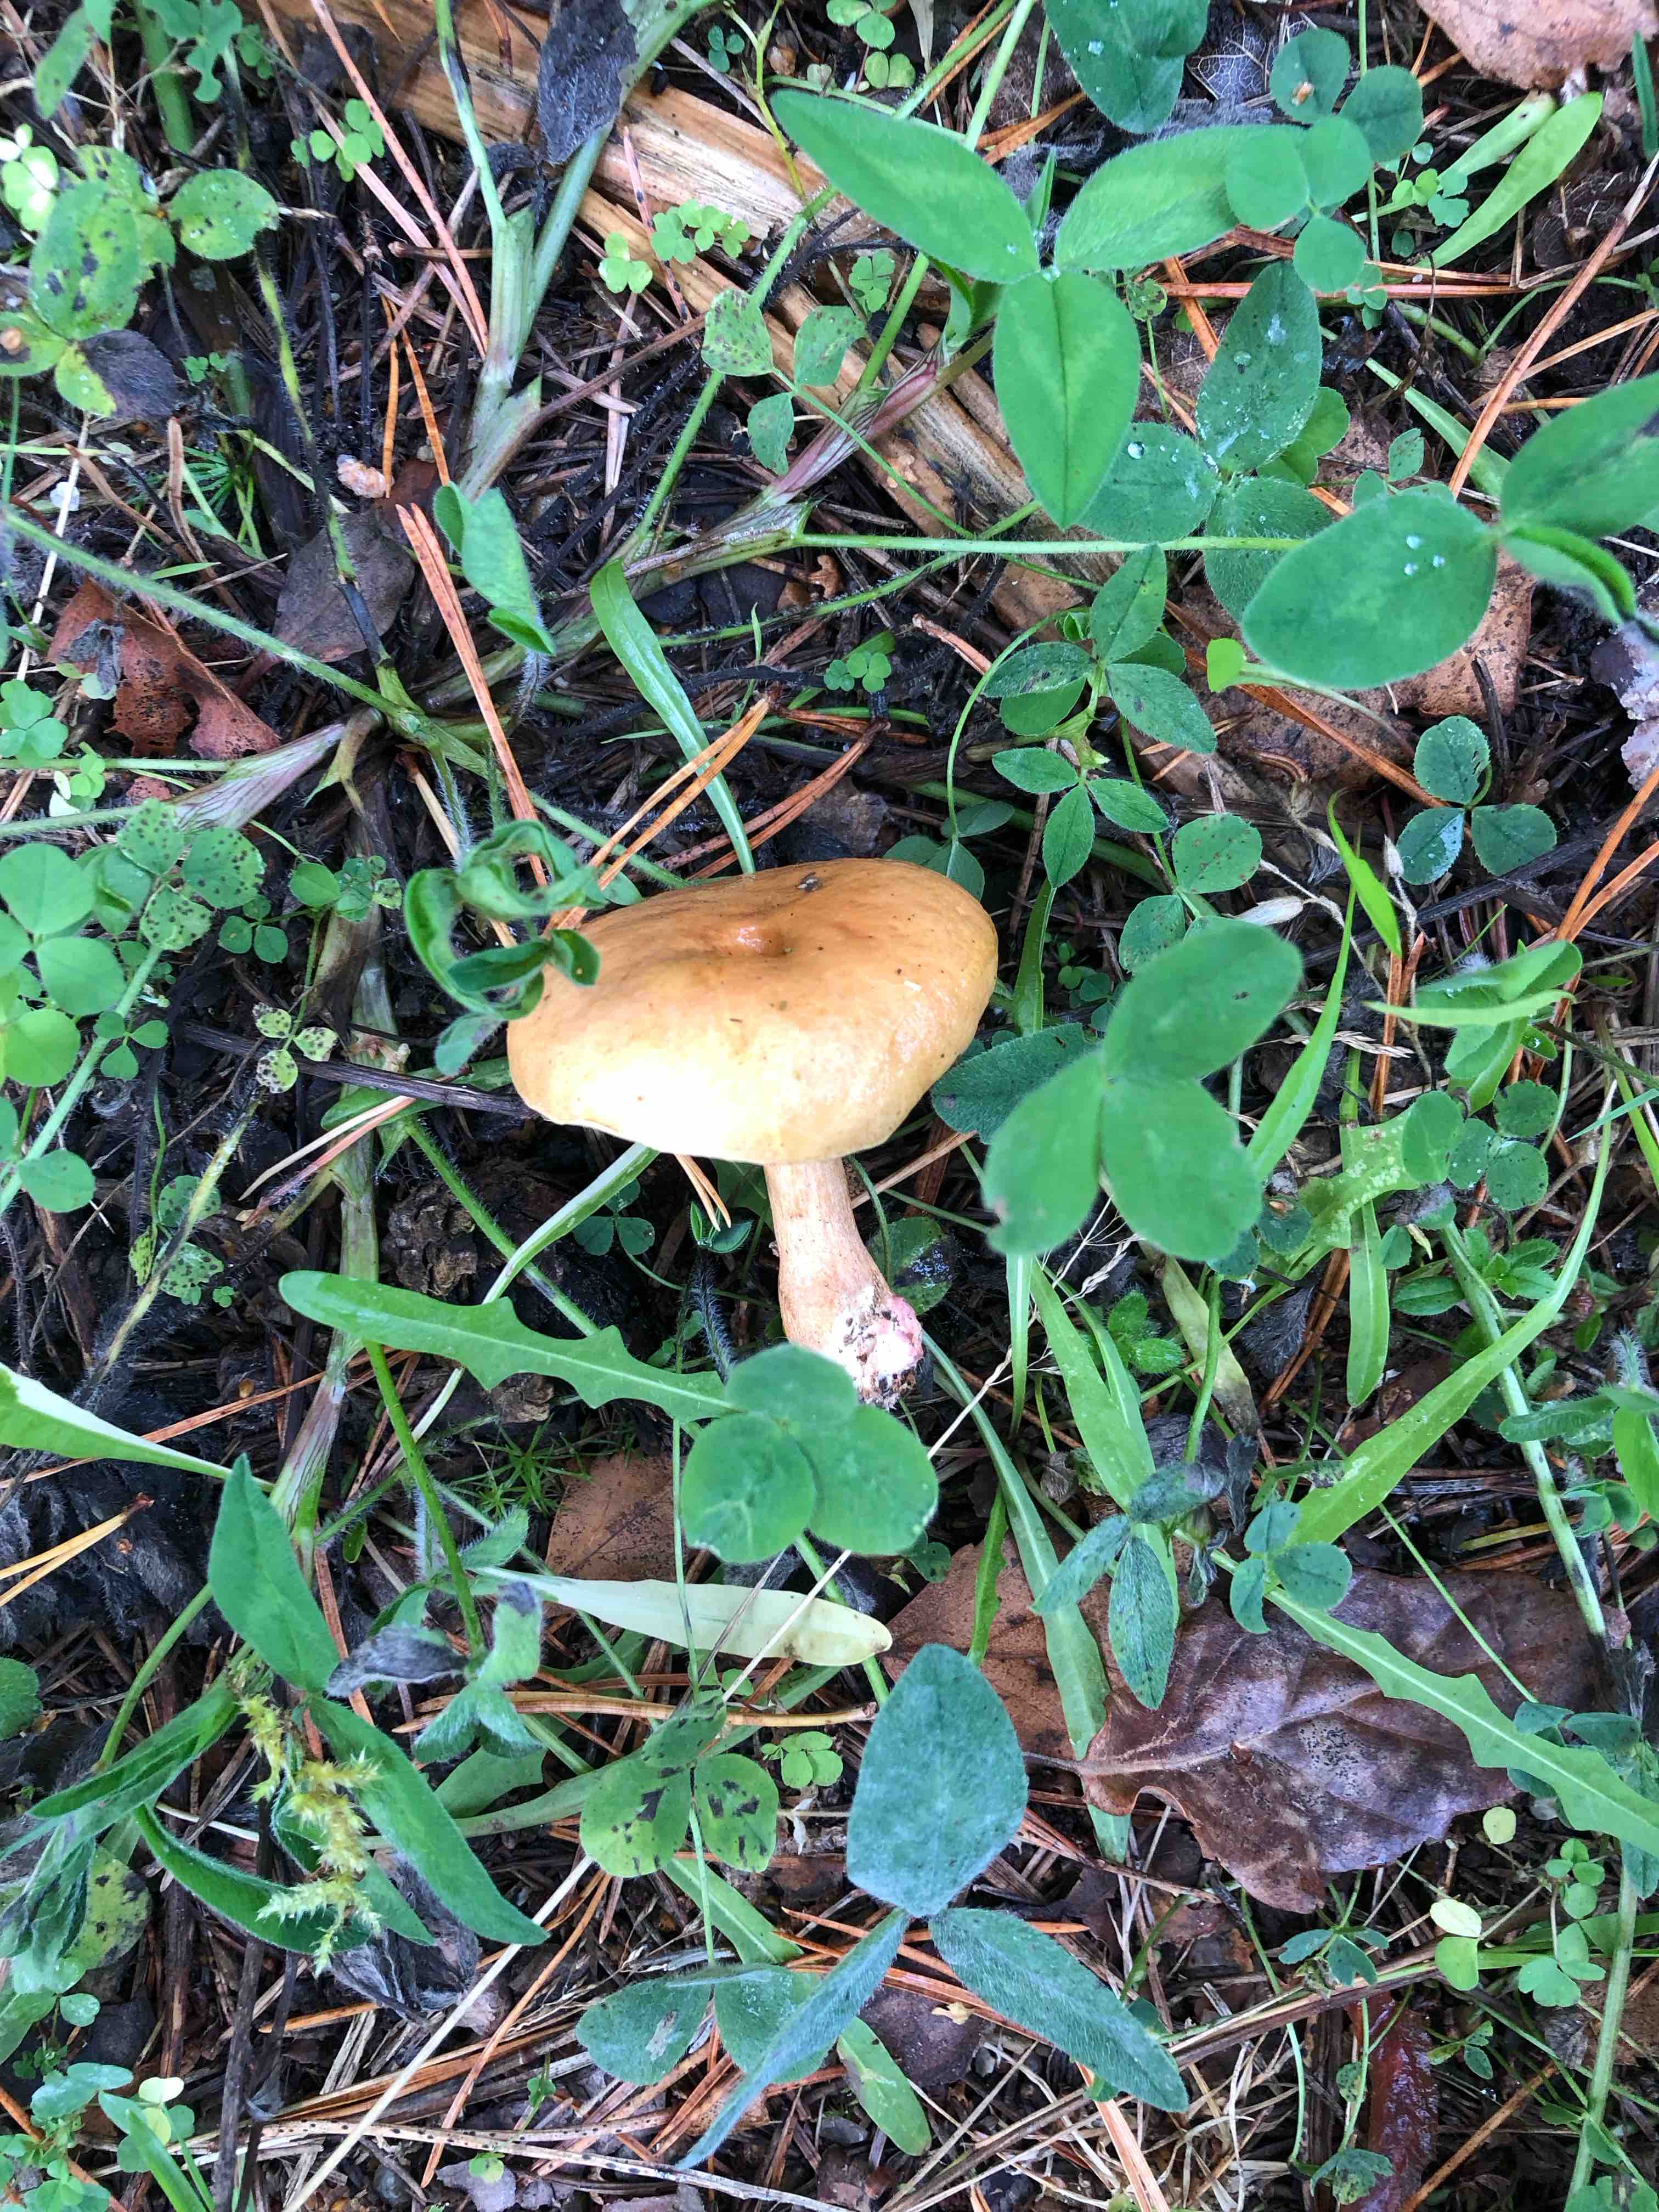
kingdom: Fungi
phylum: Basidiomycota
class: Agaricomycetes
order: Boletales
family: Suillaceae
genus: Suillus
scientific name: Suillus bovinus
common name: grovporet slimrørhat
